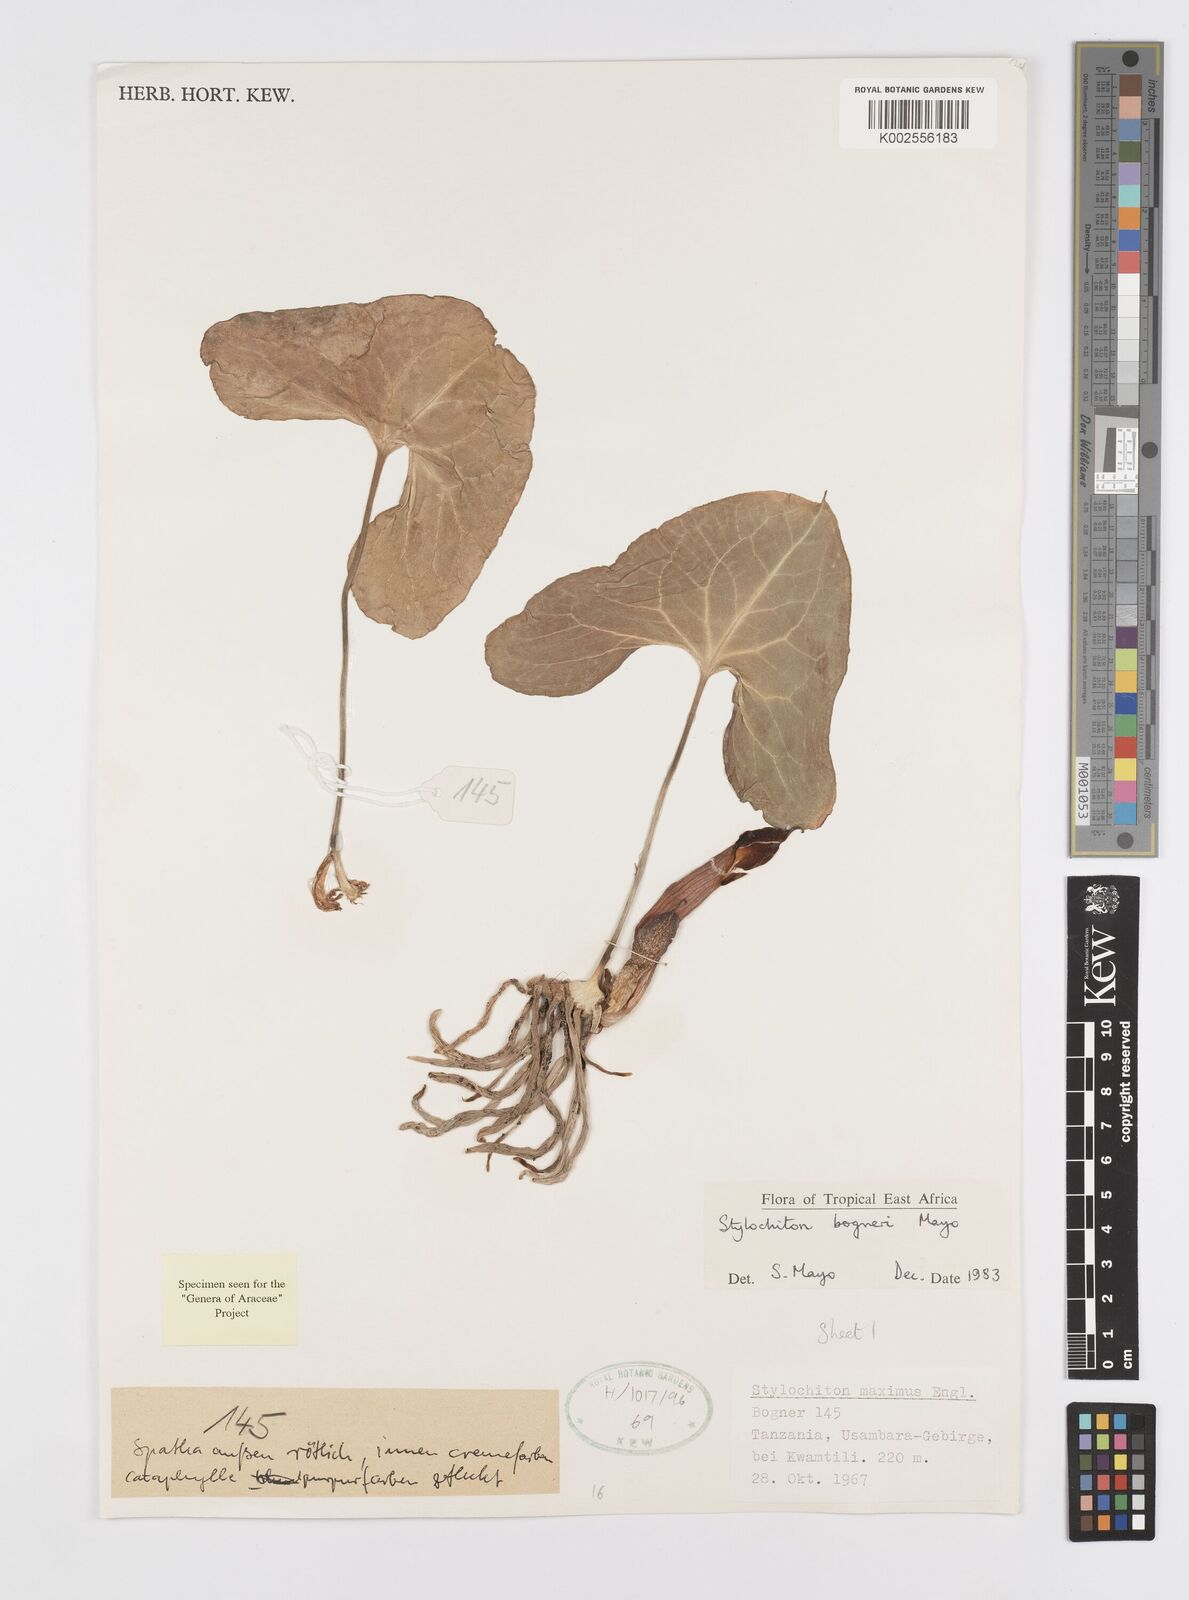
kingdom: Plantae
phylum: Tracheophyta
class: Liliopsida
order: Alismatales
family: Araceae
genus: Stylochaeton
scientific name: Stylochaeton bogneri
